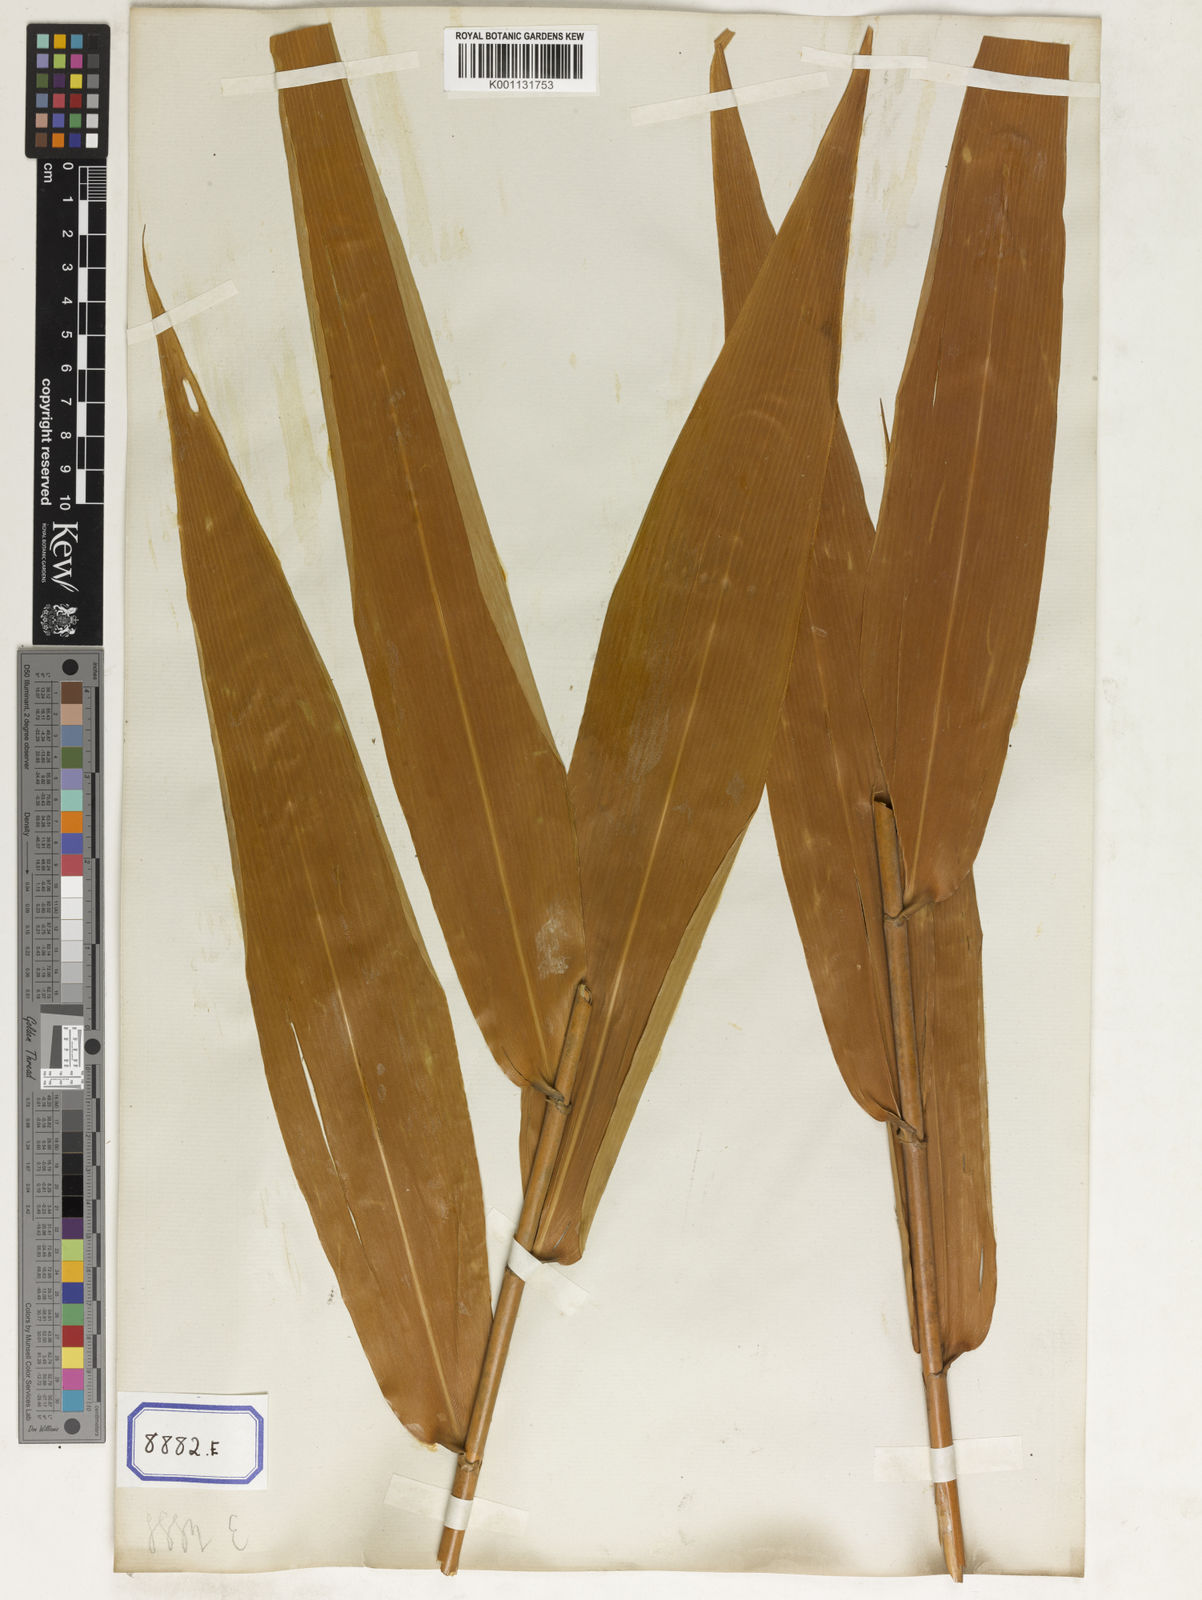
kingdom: Plantae
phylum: Tracheophyta
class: Liliopsida
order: Poales
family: Poaceae
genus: Thysanolaena
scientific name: Thysanolaena latifolia
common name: Tiger grass
